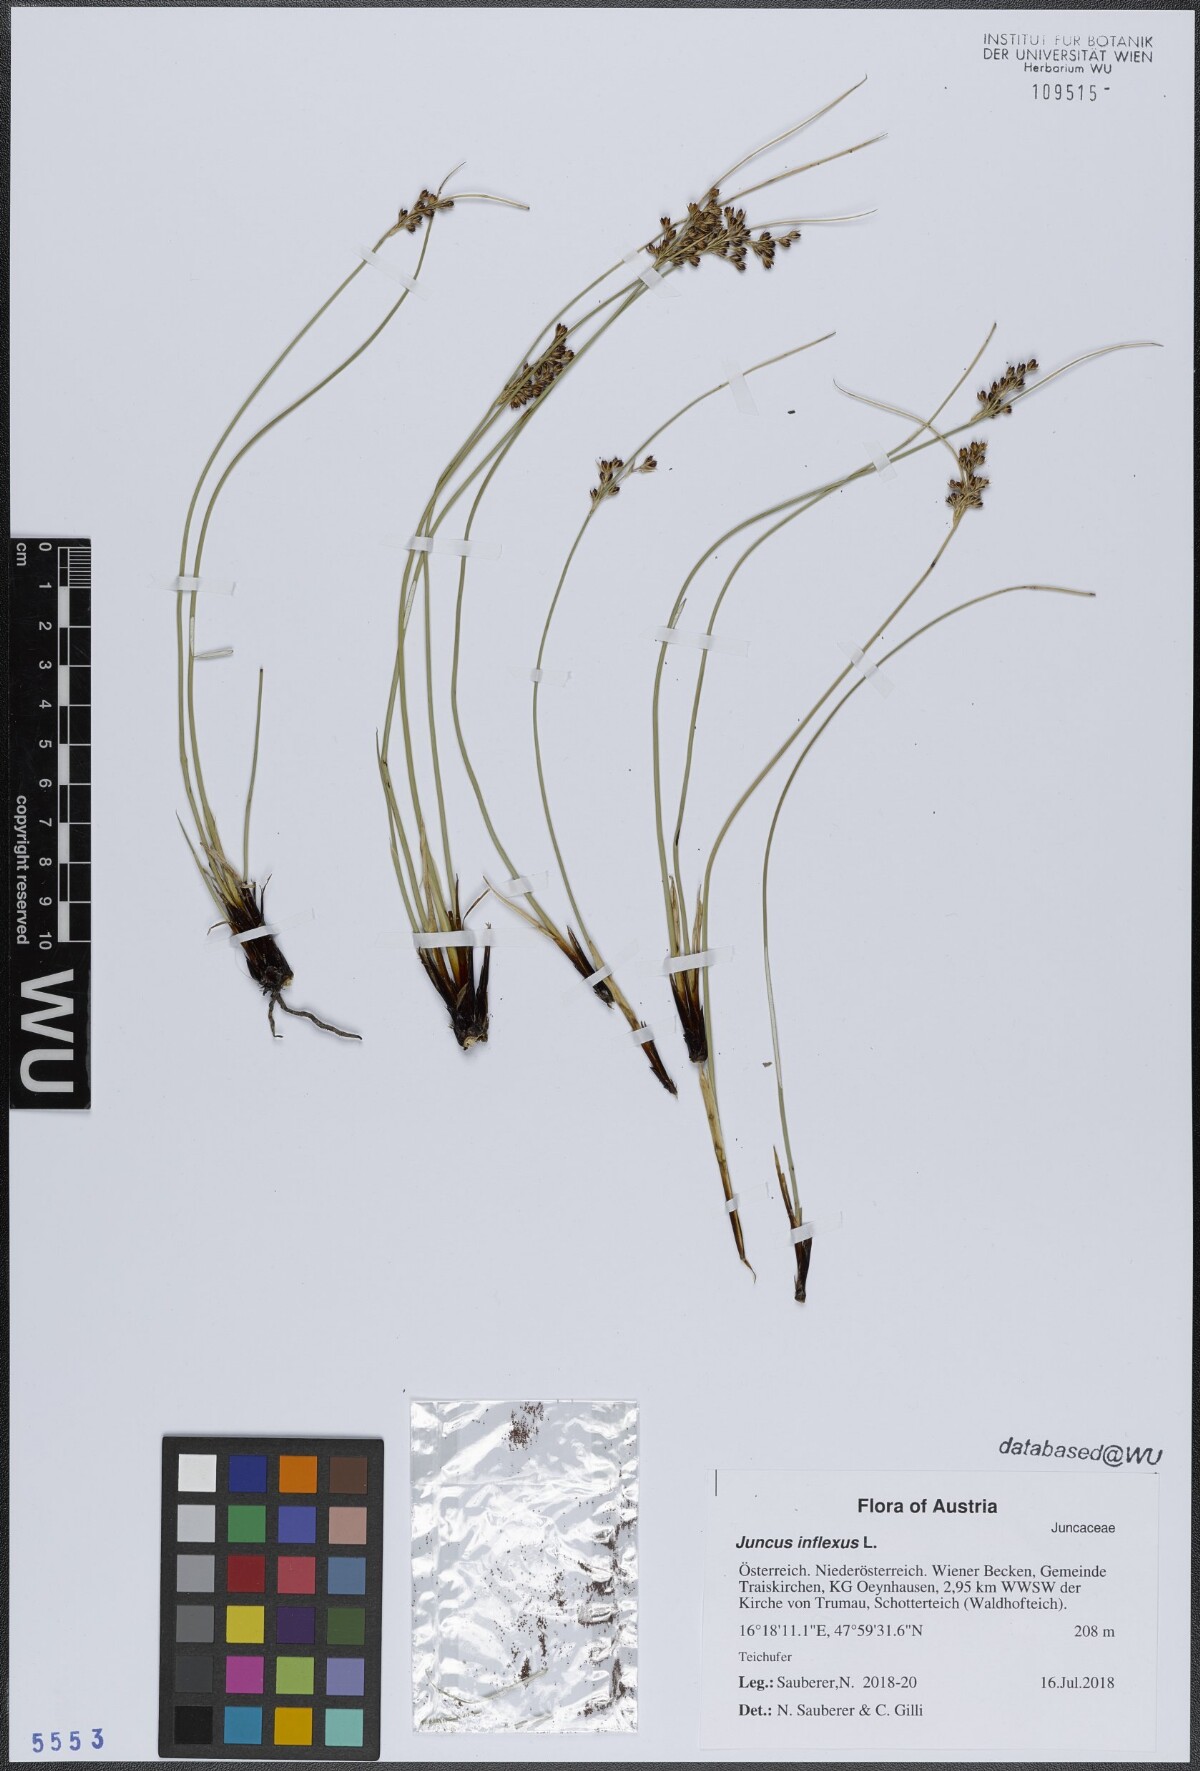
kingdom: Plantae
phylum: Tracheophyta
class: Liliopsida
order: Poales
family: Juncaceae
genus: Juncus
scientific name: Juncus inflexus
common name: Hard rush
